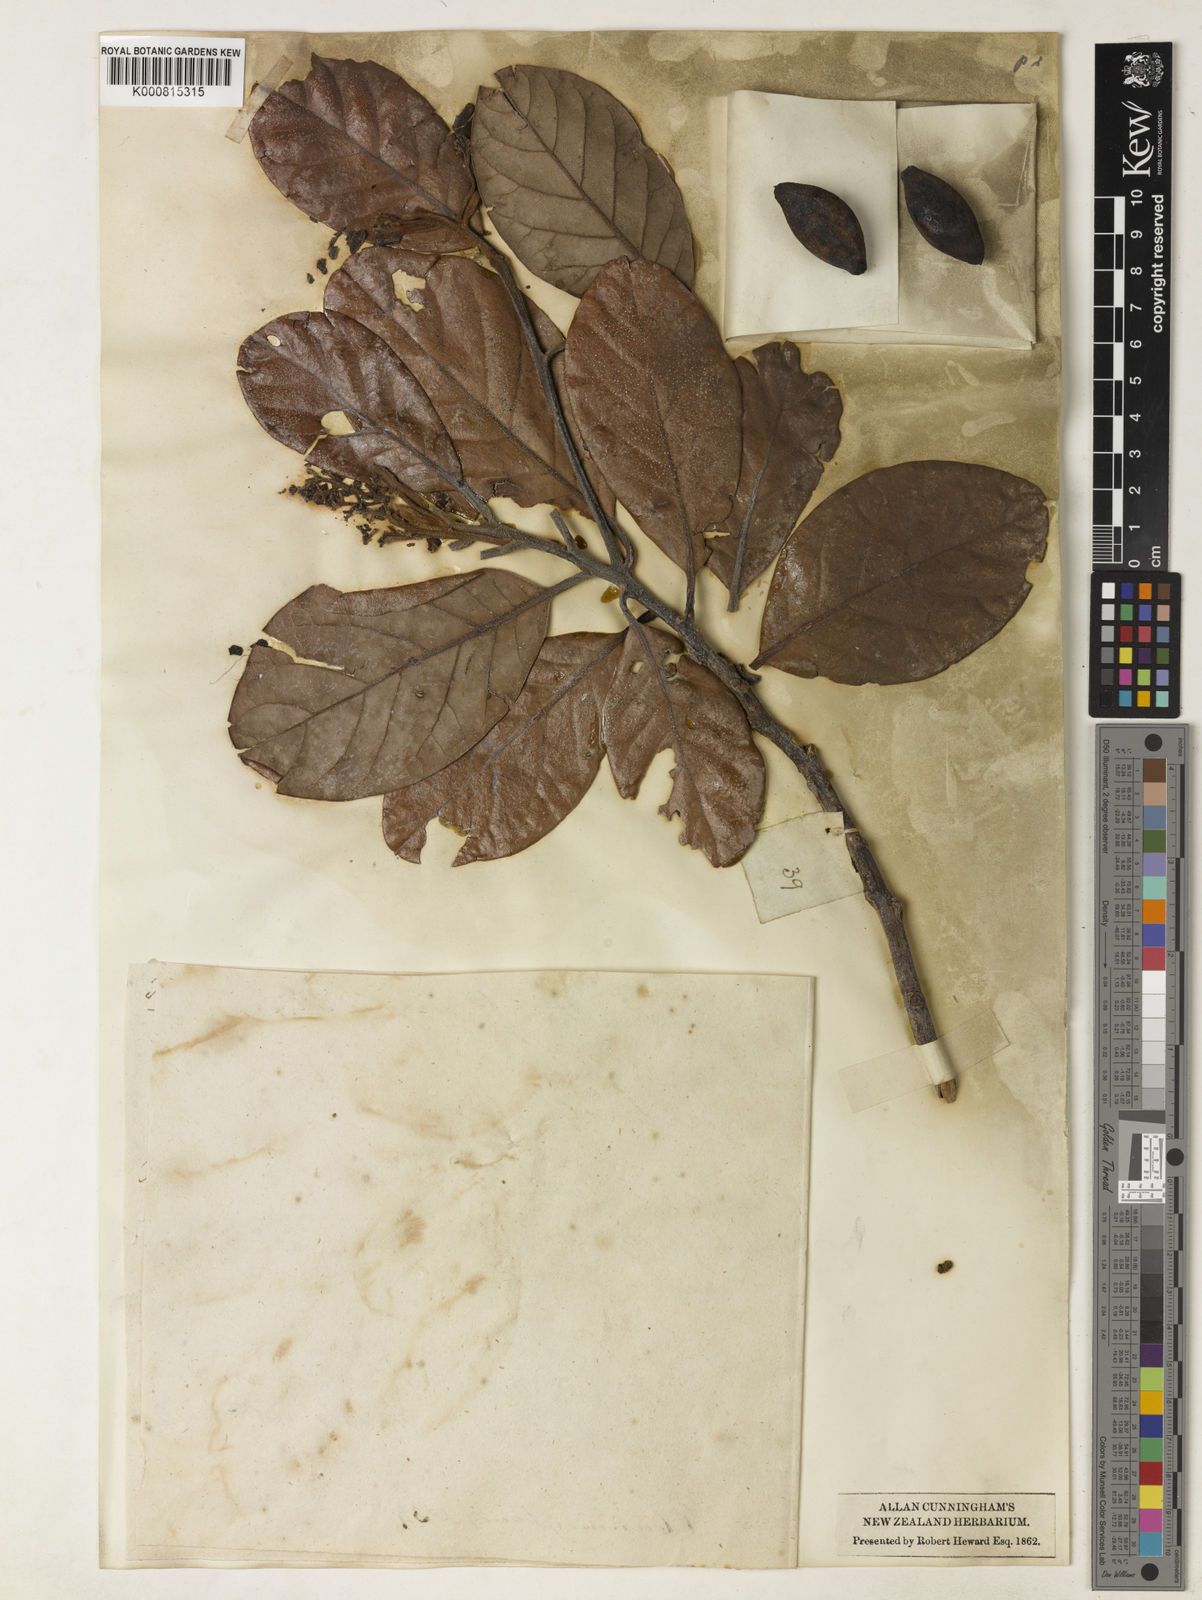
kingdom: Plantae
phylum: Tracheophyta
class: Magnoliopsida
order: Laurales
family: Lauraceae
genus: Litsea
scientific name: Litsea calicaris
